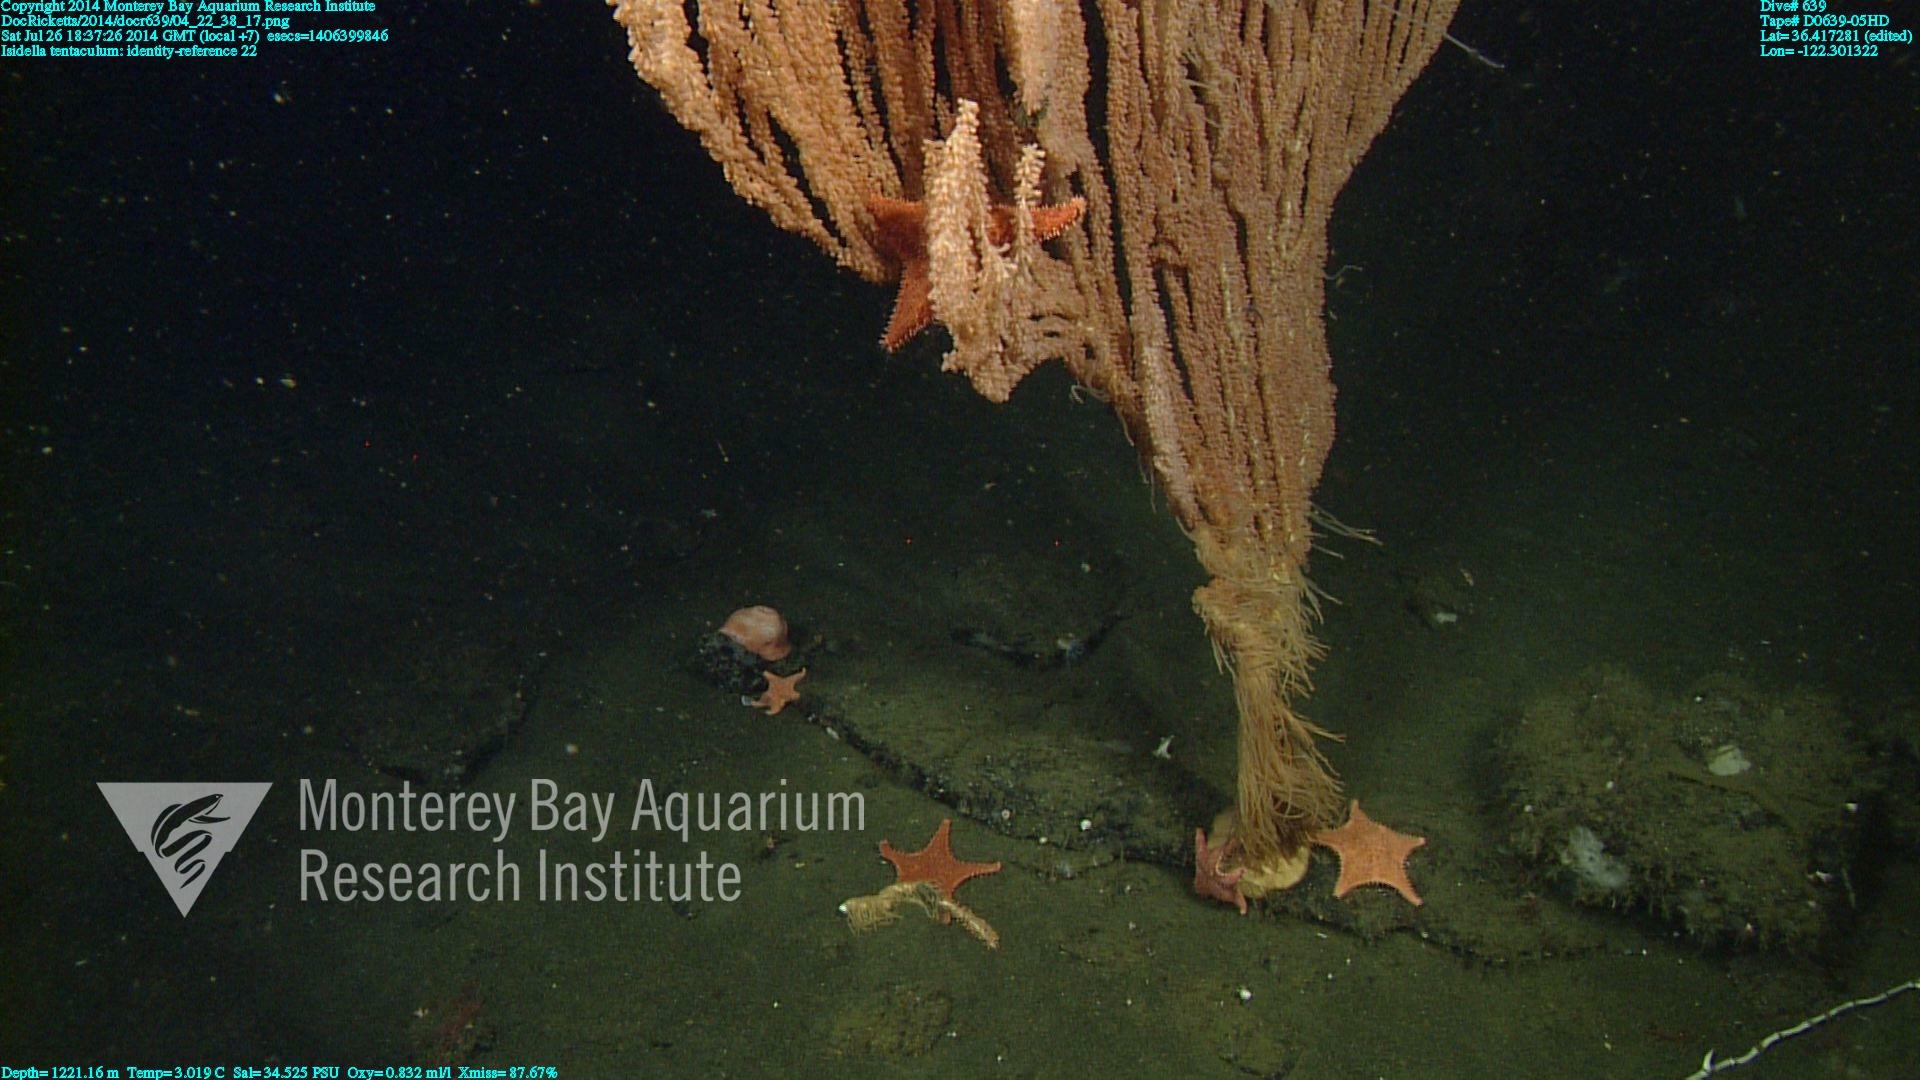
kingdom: Animalia
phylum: Cnidaria
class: Anthozoa
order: Scleralcyonacea
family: Keratoisididae
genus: Isidella
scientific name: Isidella tentaculum
